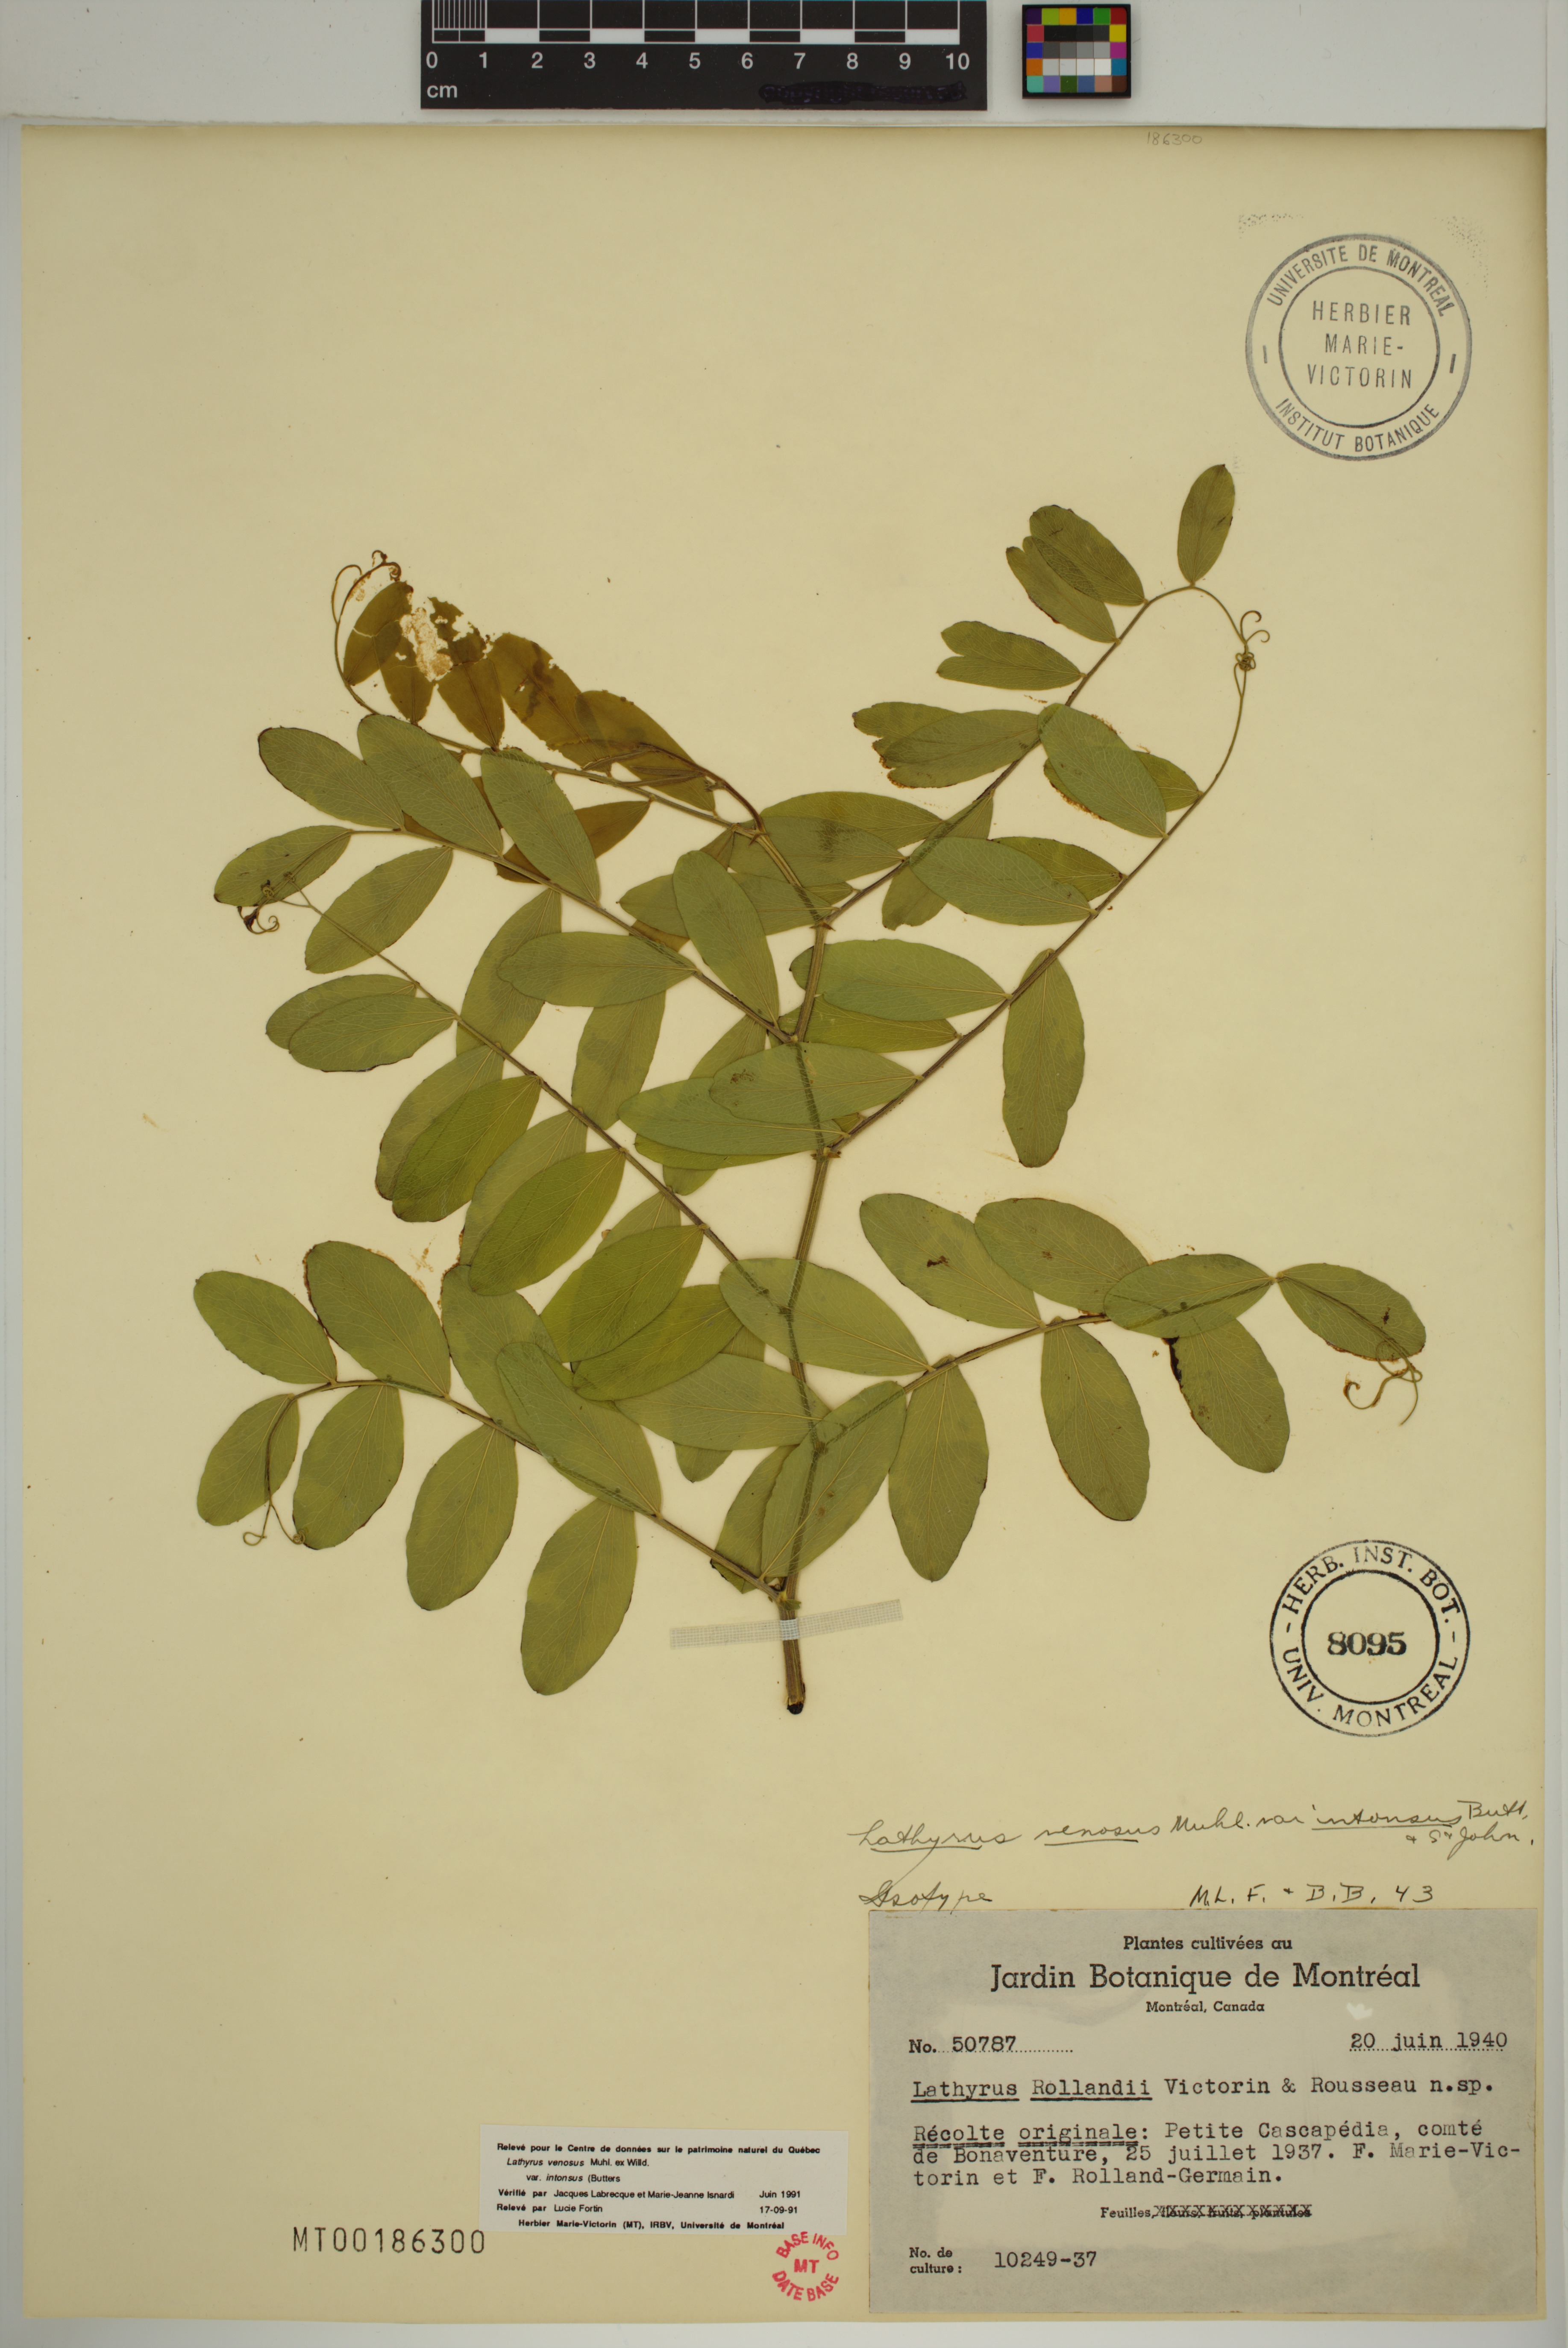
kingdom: Plantae
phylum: Tracheophyta
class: Magnoliopsida
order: Fabales
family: Fabaceae
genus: Lathyrus
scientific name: Lathyrus venosus
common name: Forest-pea
